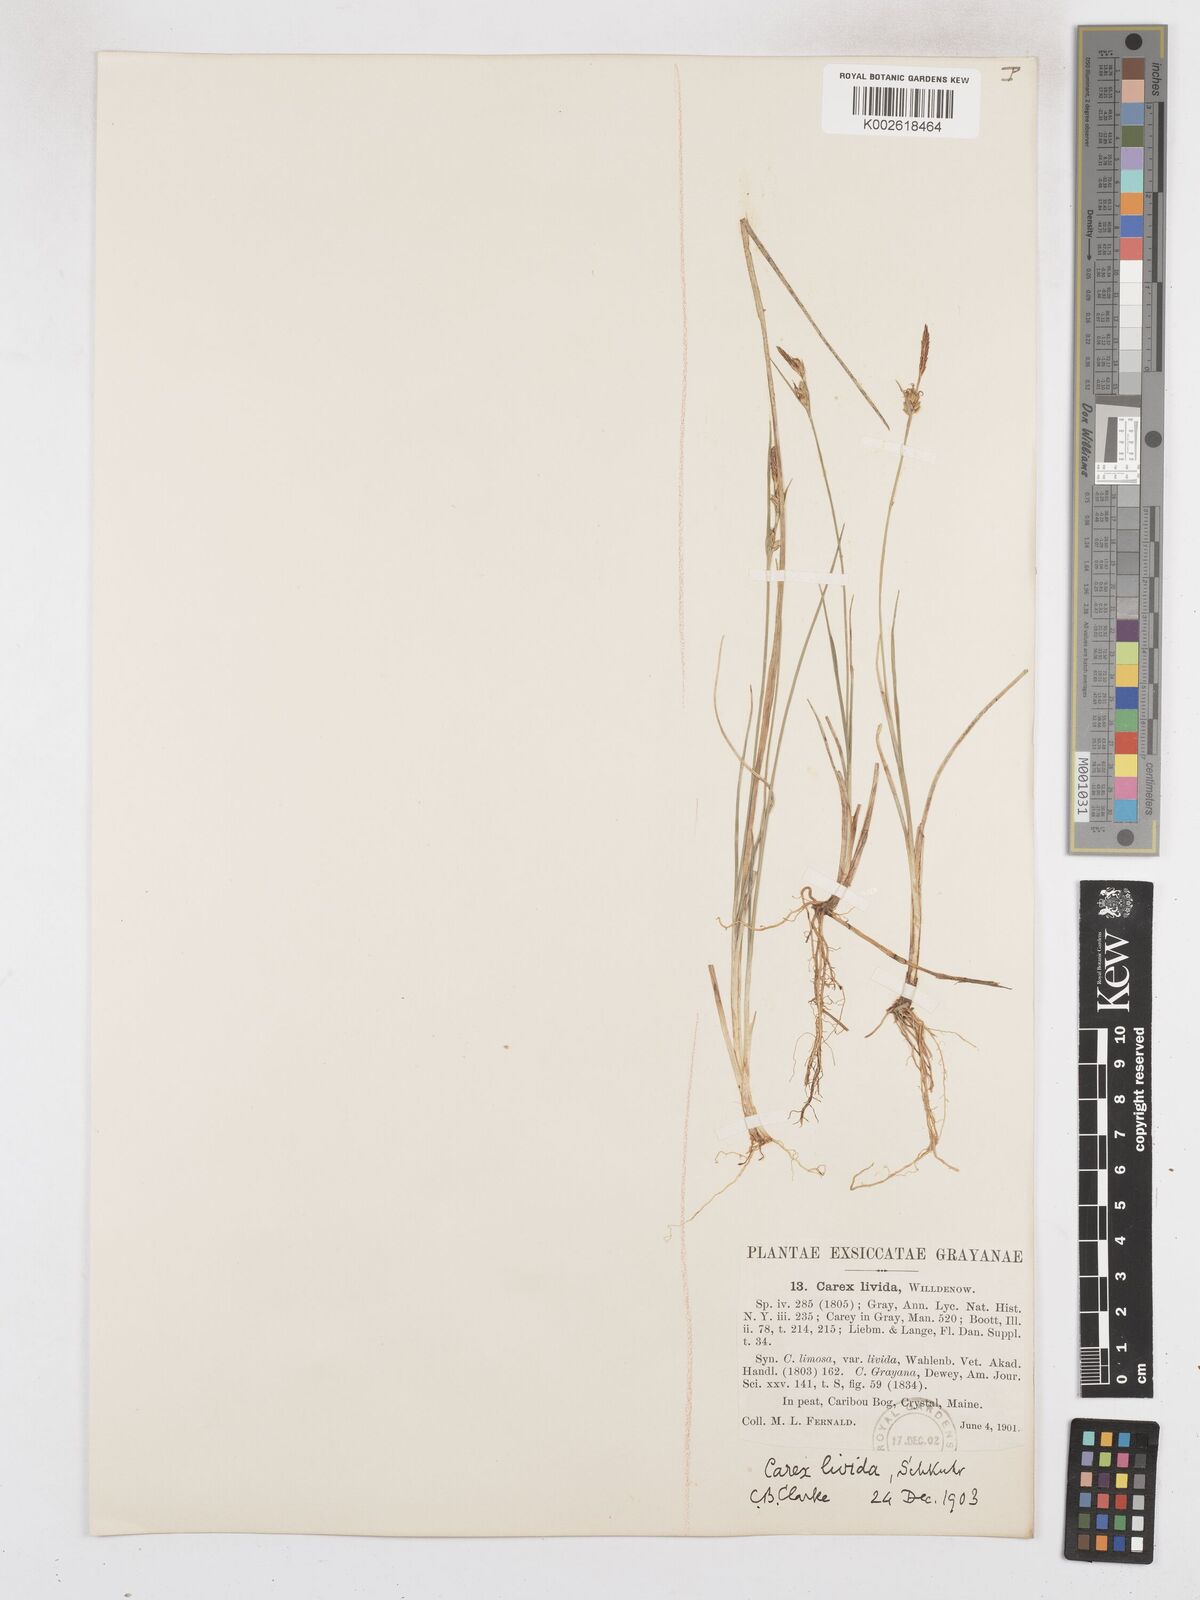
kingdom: Plantae
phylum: Tracheophyta
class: Liliopsida
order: Poales
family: Cyperaceae
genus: Carex
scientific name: Carex livida
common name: Livid sedge
